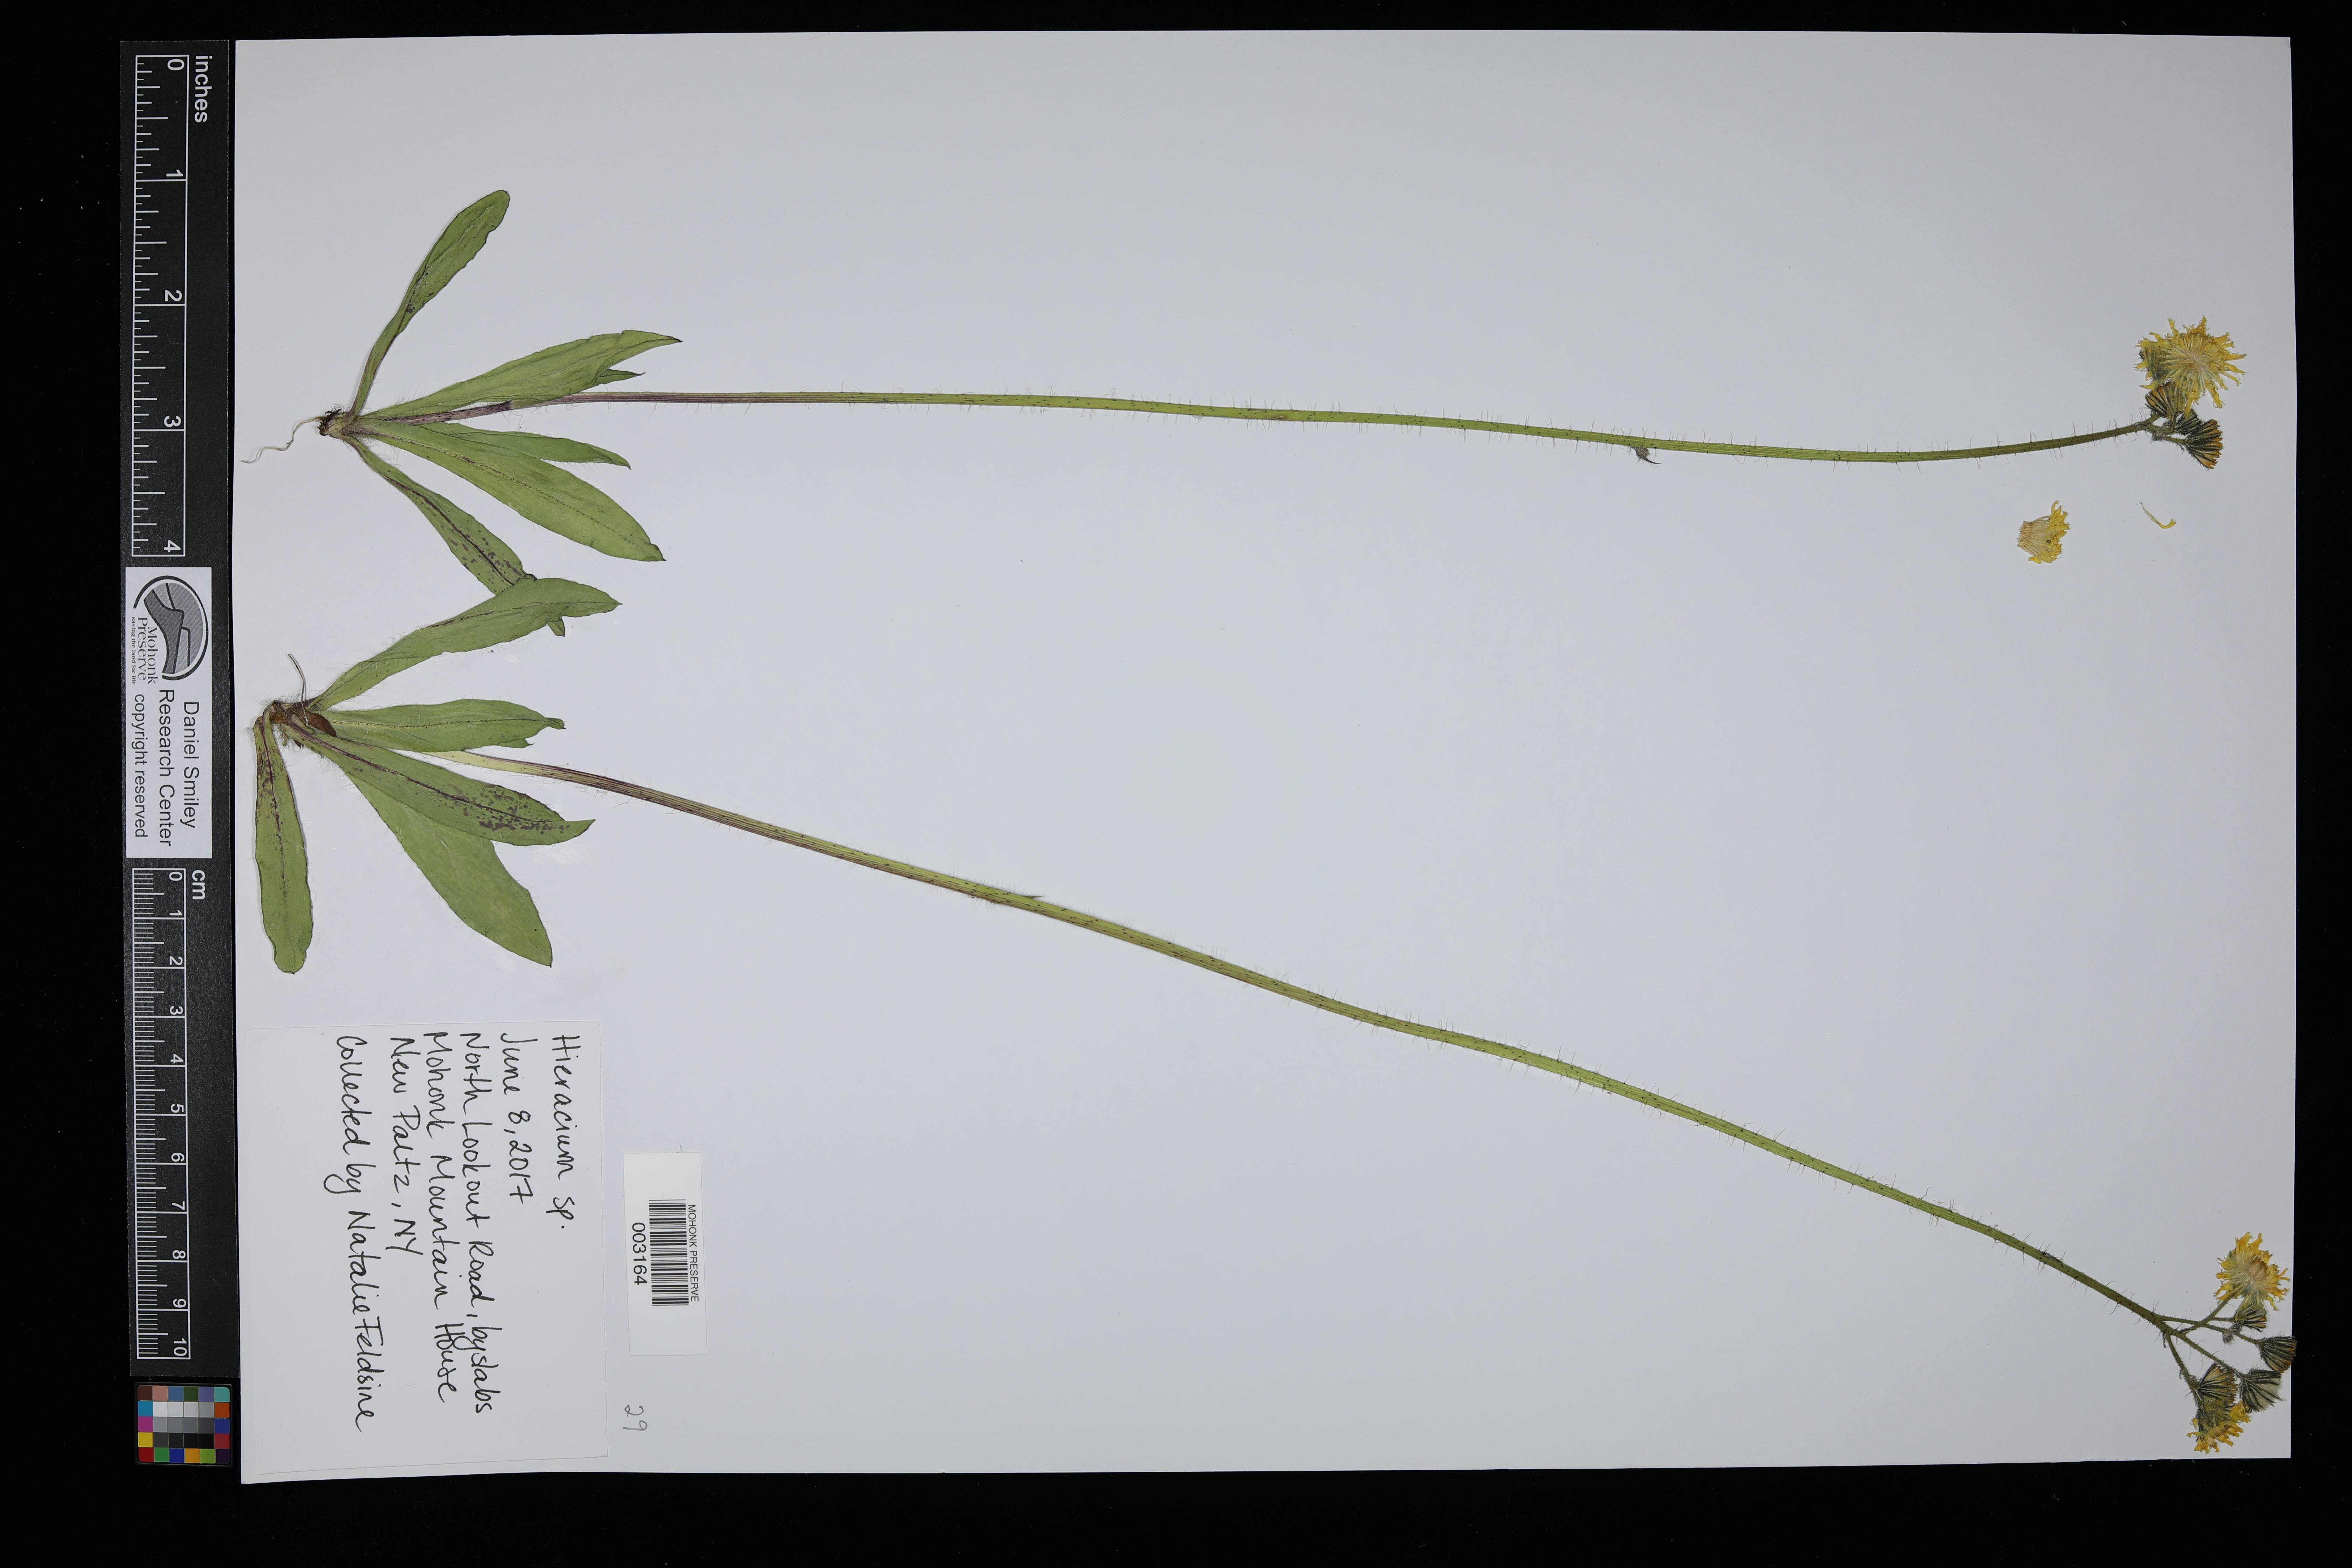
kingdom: Plantae
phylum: Tracheophyta
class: Magnoliopsida
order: Asterales
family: Asteraceae
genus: Hieracium
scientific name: Hieracium
